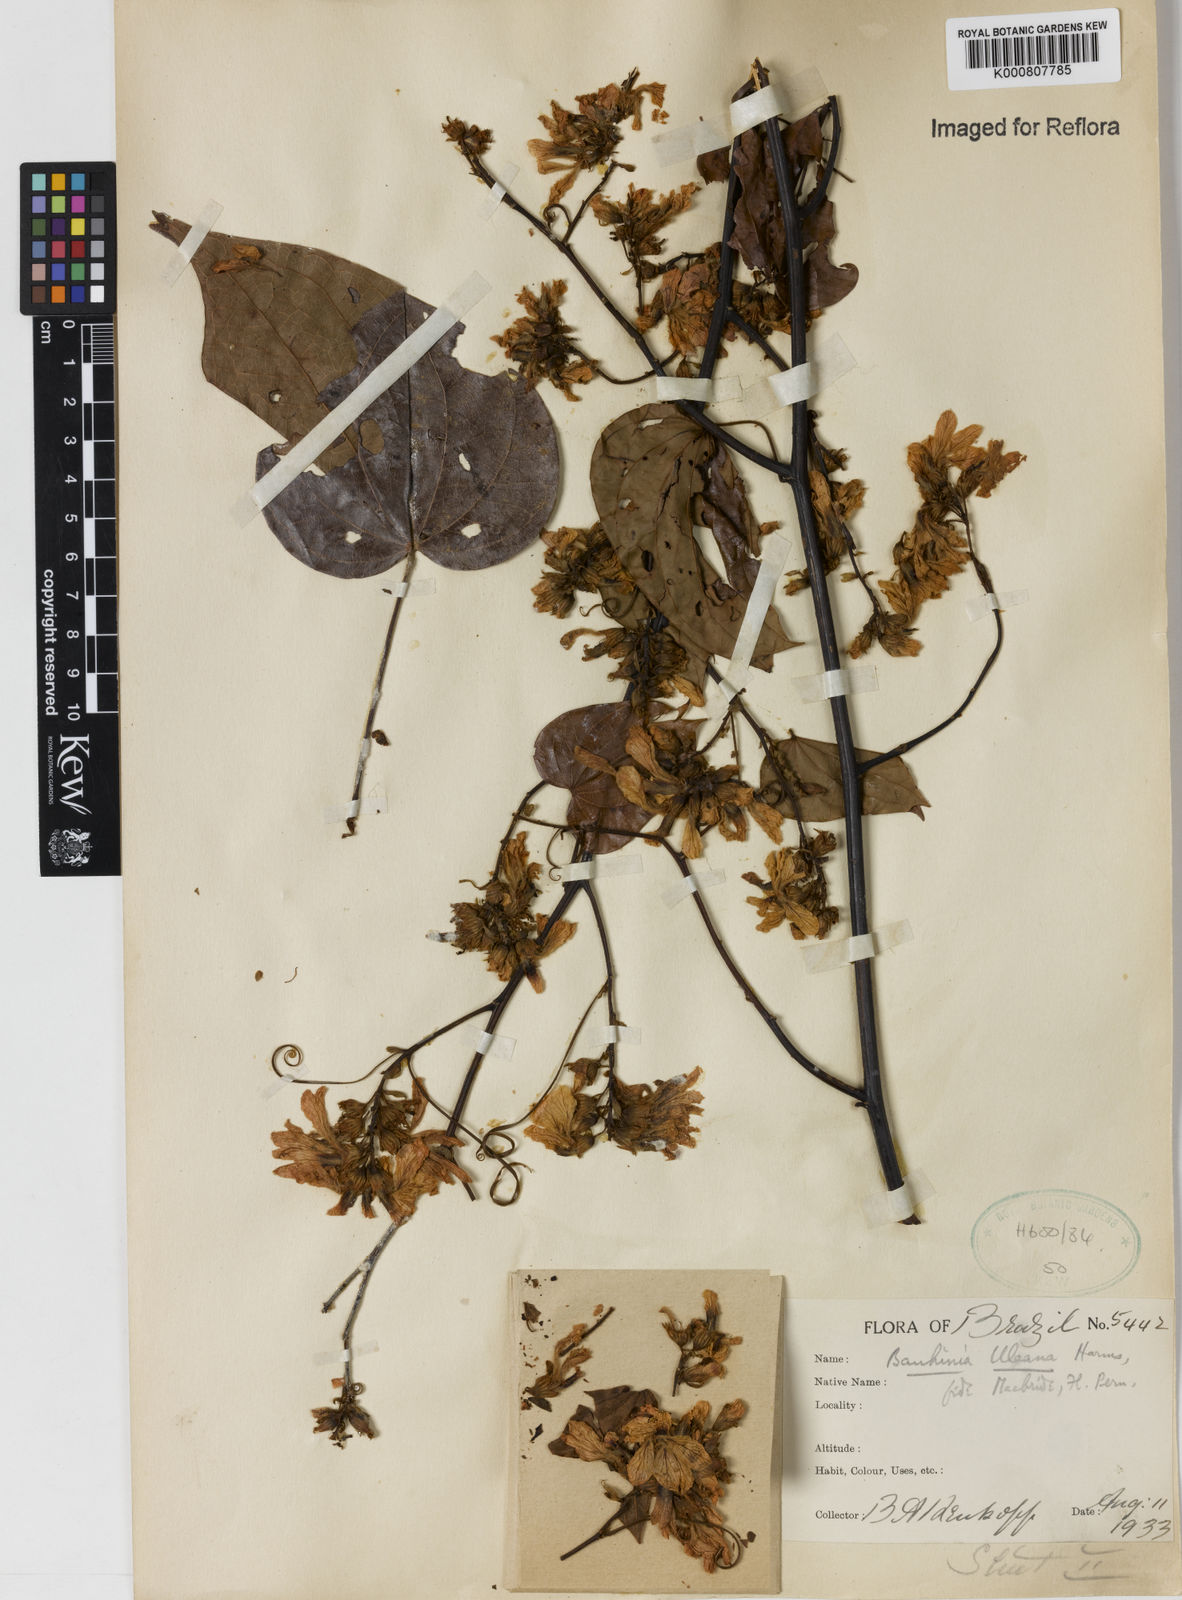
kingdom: Plantae
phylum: Tracheophyta
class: Magnoliopsida
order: Fabales
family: Fabaceae
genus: Schnella
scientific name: Schnella uleana
